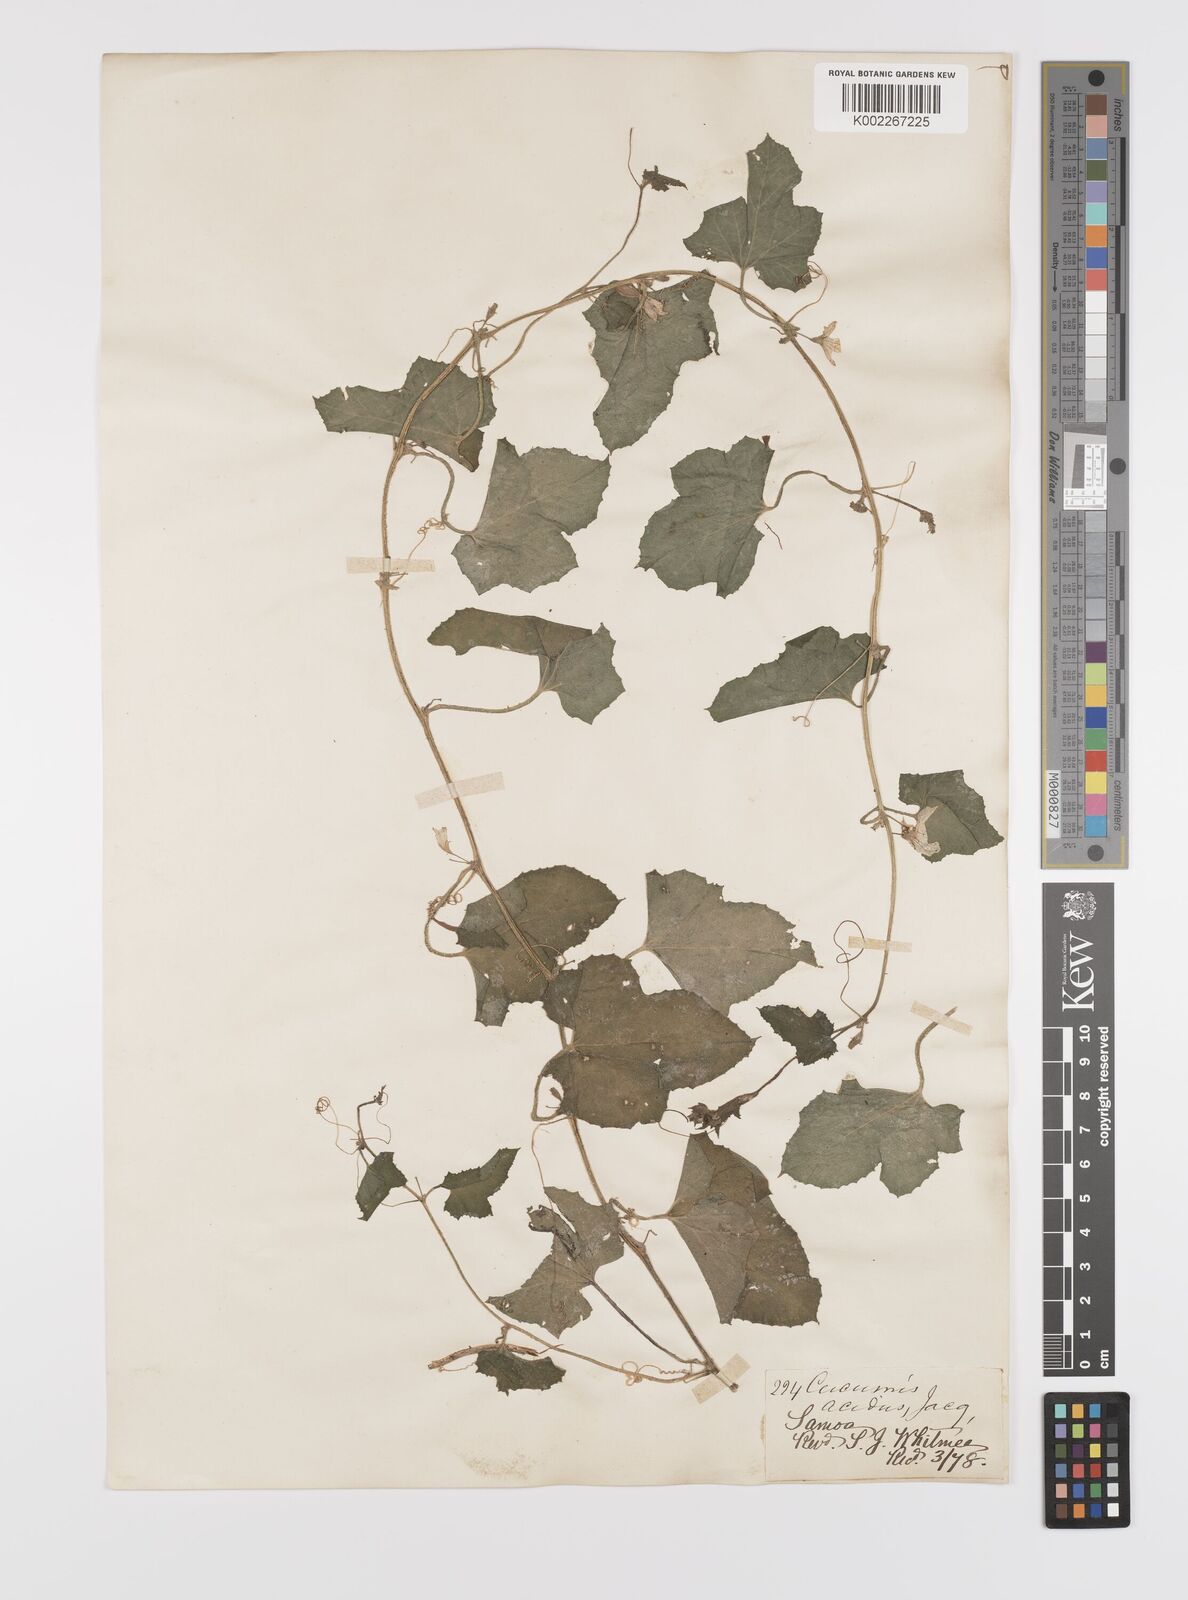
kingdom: Plantae
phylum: Tracheophyta
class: Magnoliopsida
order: Cucurbitales
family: Cucurbitaceae
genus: Cucumis
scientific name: Cucumis melo
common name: Melon
